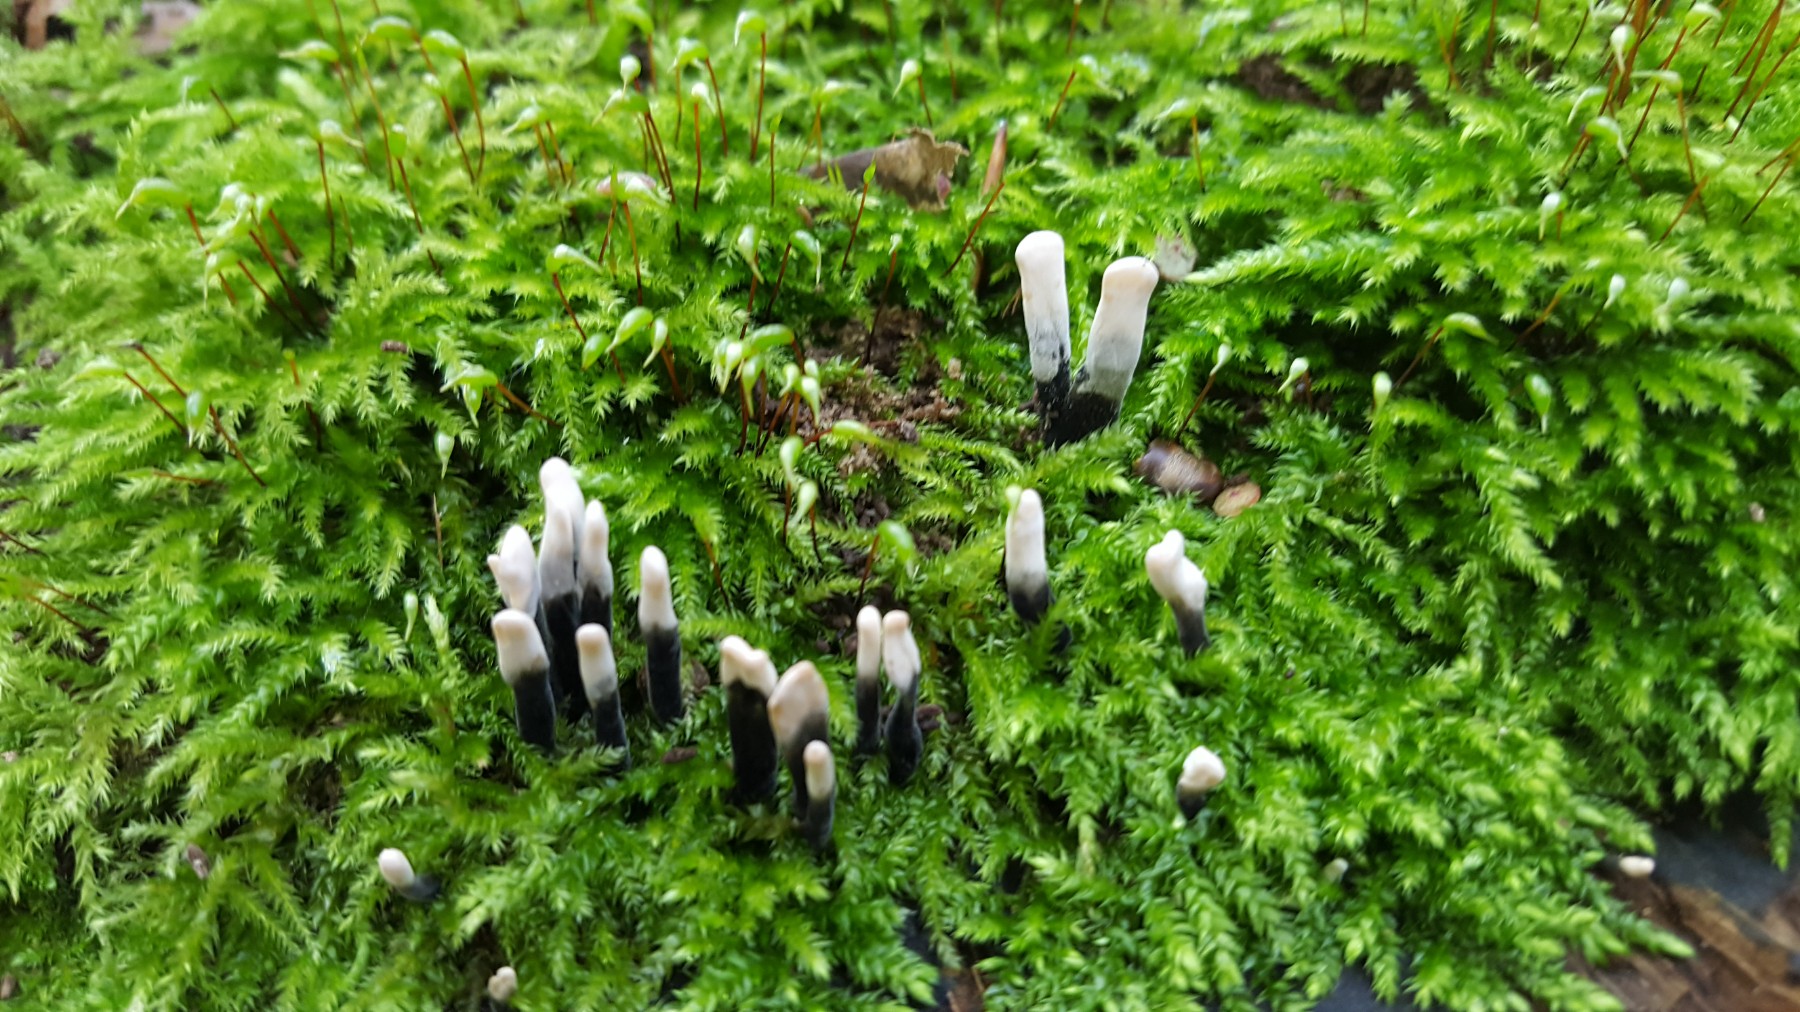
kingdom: Fungi
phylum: Ascomycota
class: Sordariomycetes
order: Xylariales
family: Xylariaceae
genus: Xylaria
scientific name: Xylaria hypoxylon
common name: grenet stødsvamp
